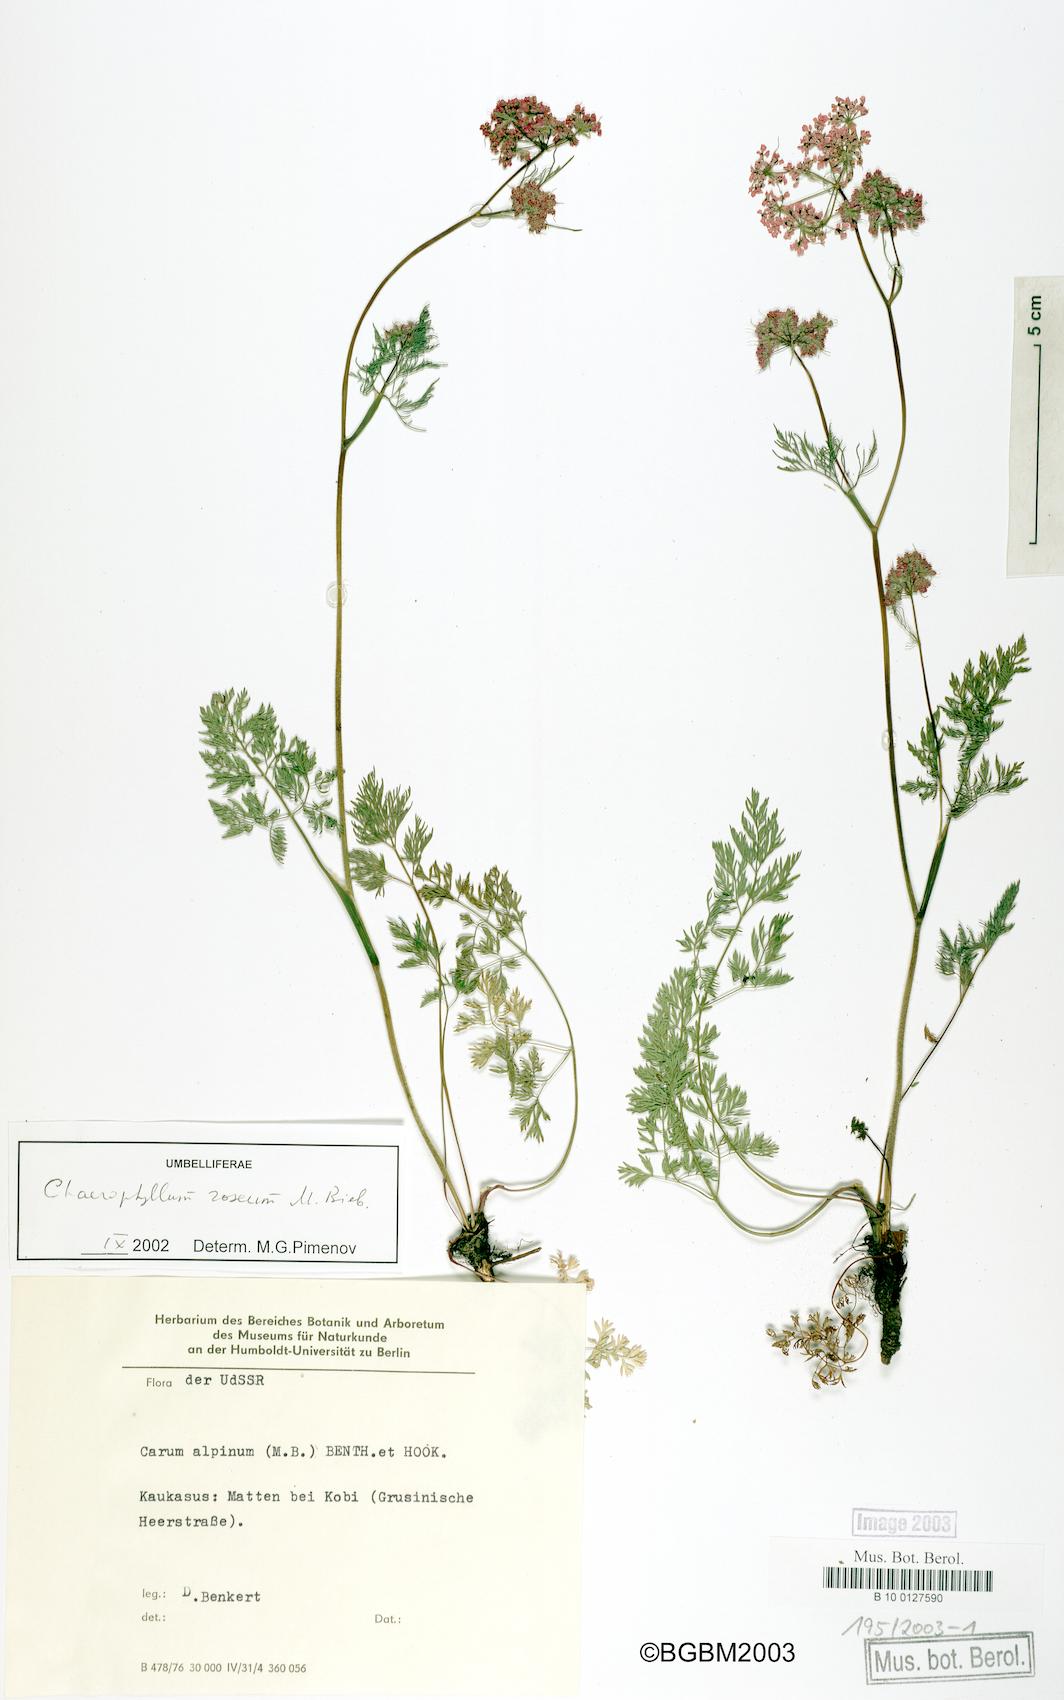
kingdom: Plantae
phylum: Tracheophyta
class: Magnoliopsida
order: Apiales
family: Apiaceae
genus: Chaerophyllum
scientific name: Chaerophyllum roseum
